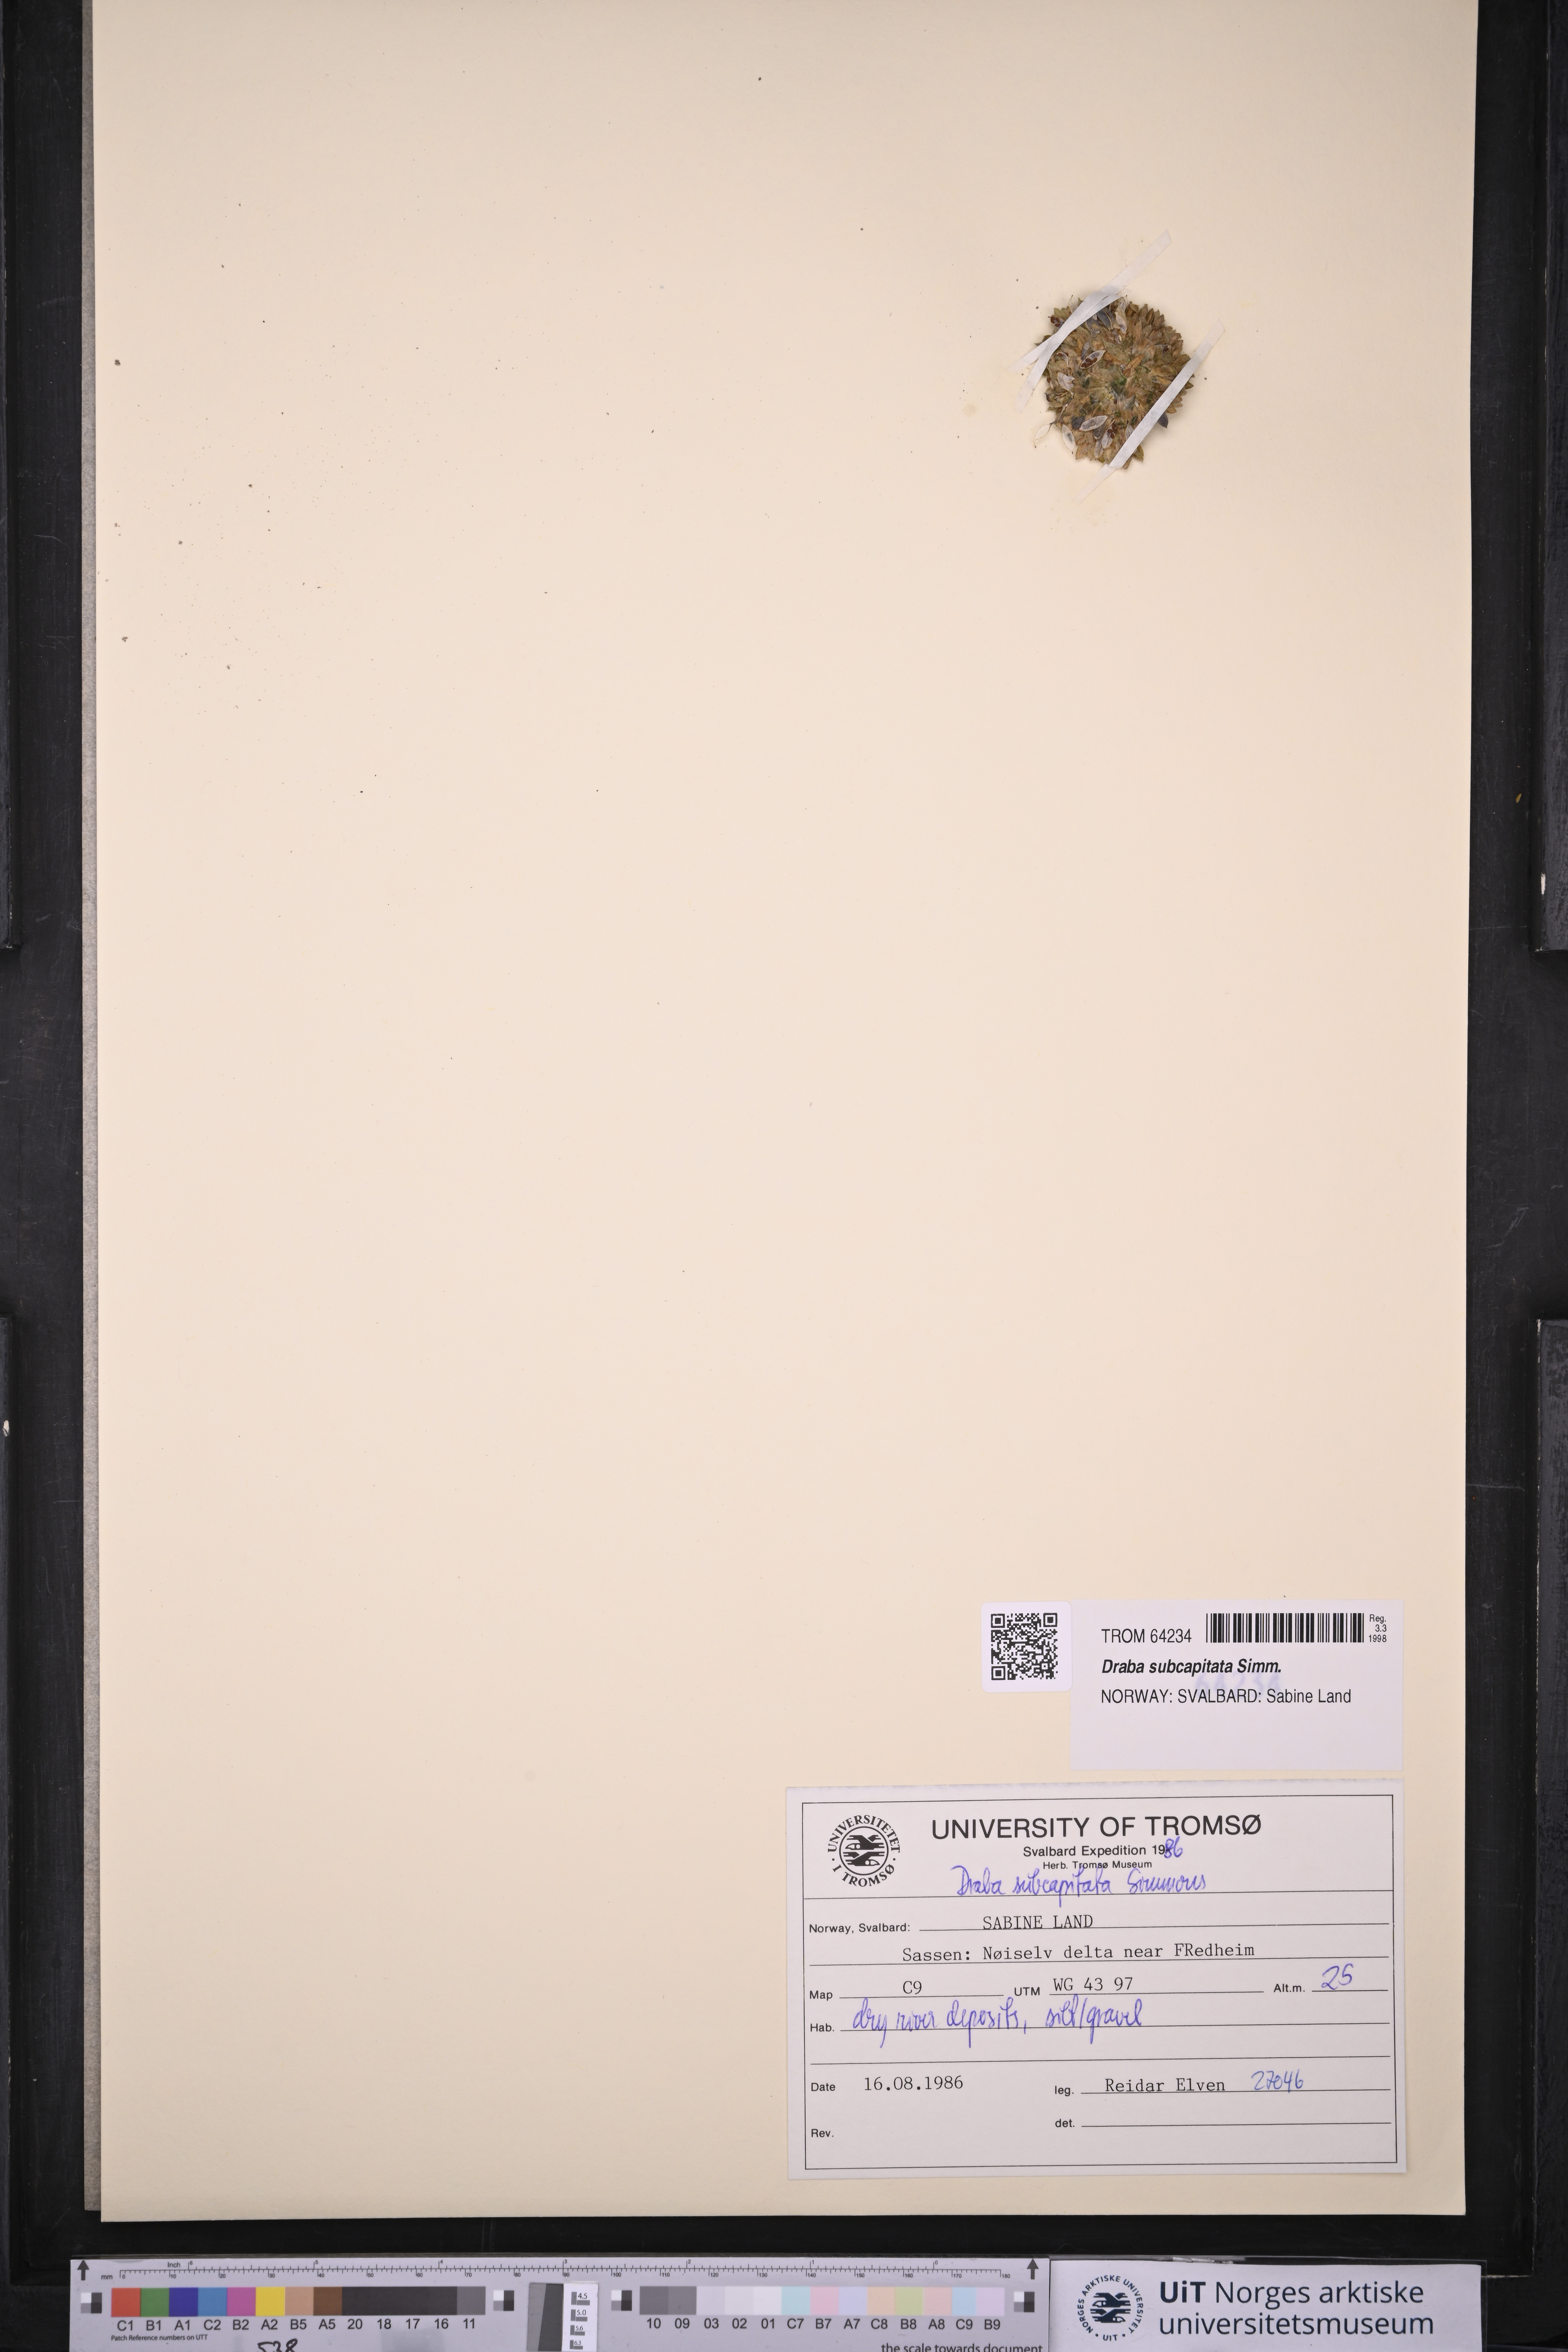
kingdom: Plantae
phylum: Tracheophyta
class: Magnoliopsida
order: Brassicales
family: Brassicaceae
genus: Draba
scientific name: Draba subcapitata
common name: Ellesmere island draba
